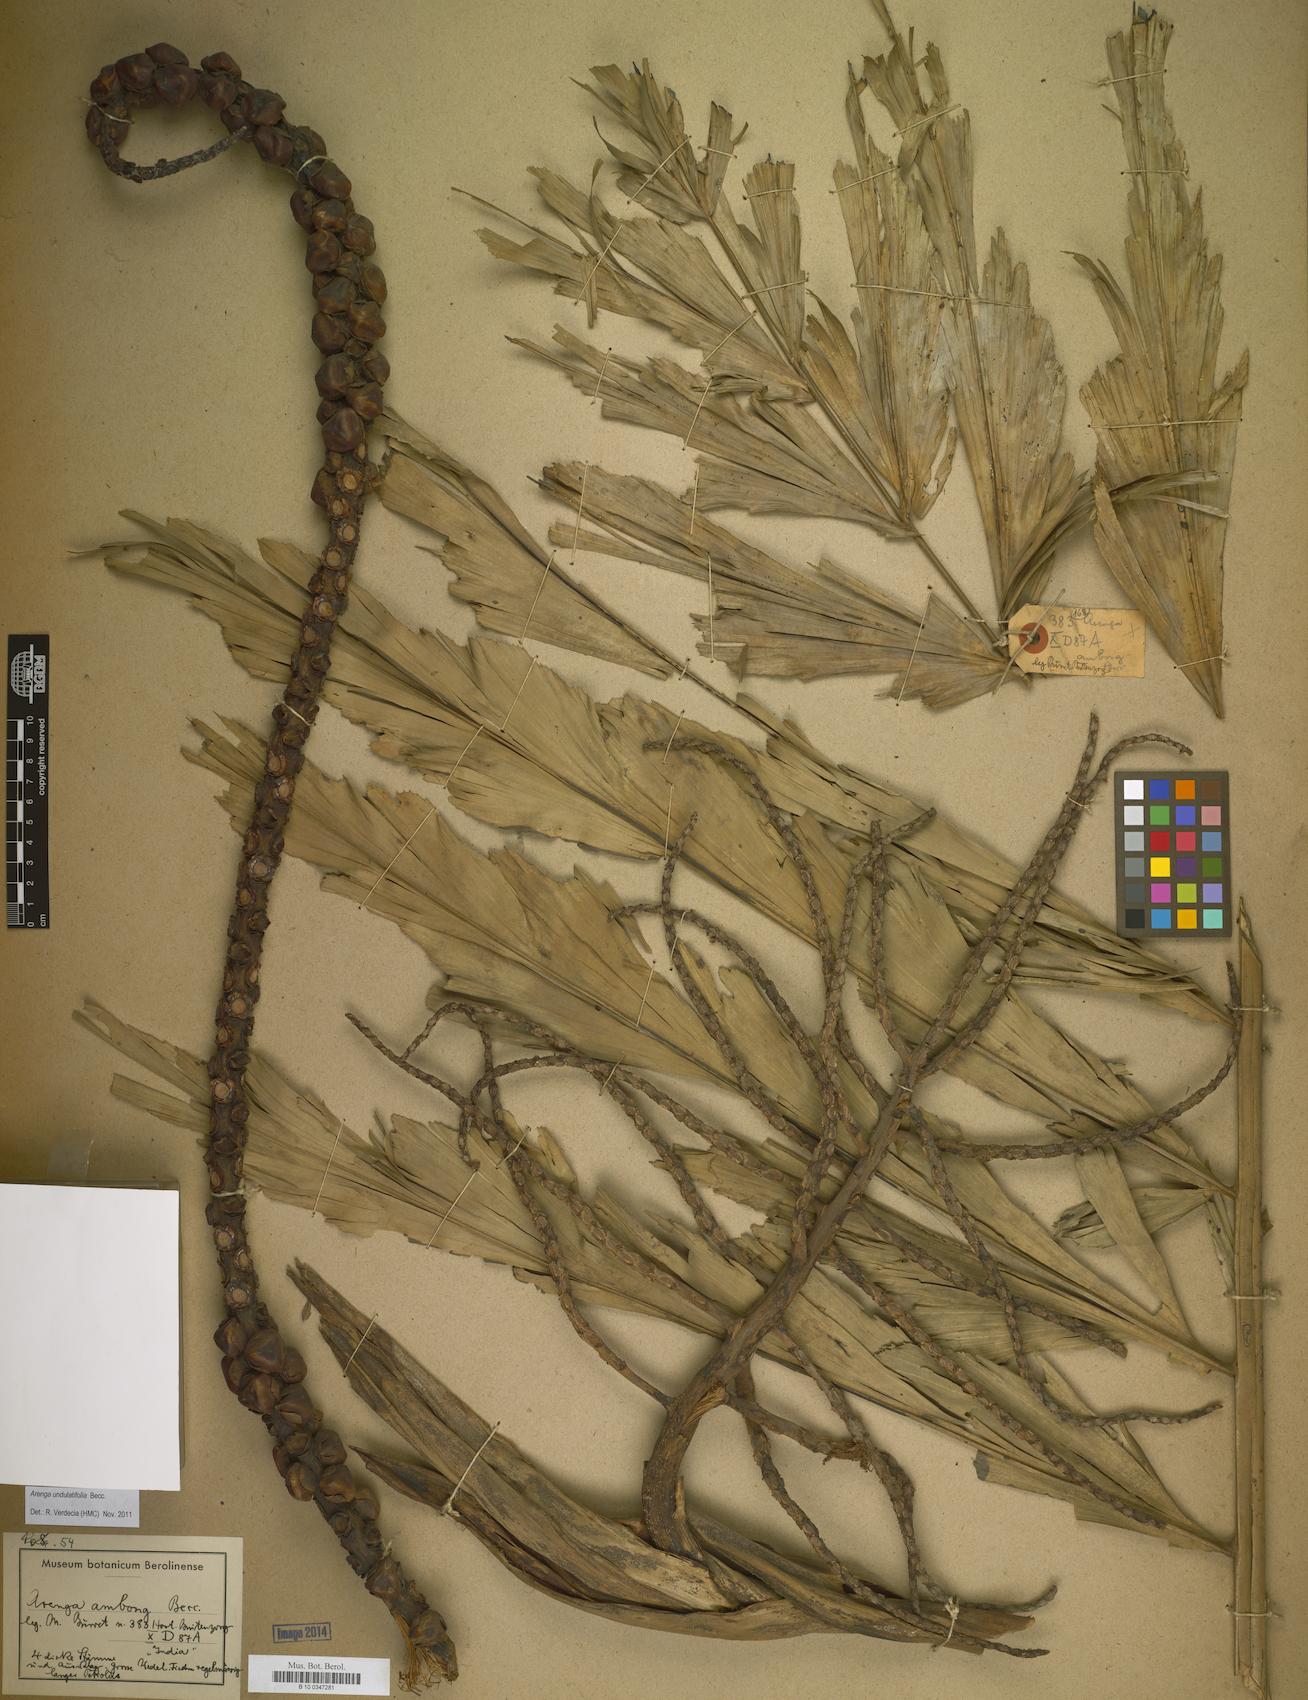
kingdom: Plantae
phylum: Tracheophyta
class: Liliopsida
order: Arecales
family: Arecaceae
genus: Arenga
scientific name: Arenga undulatifolia
